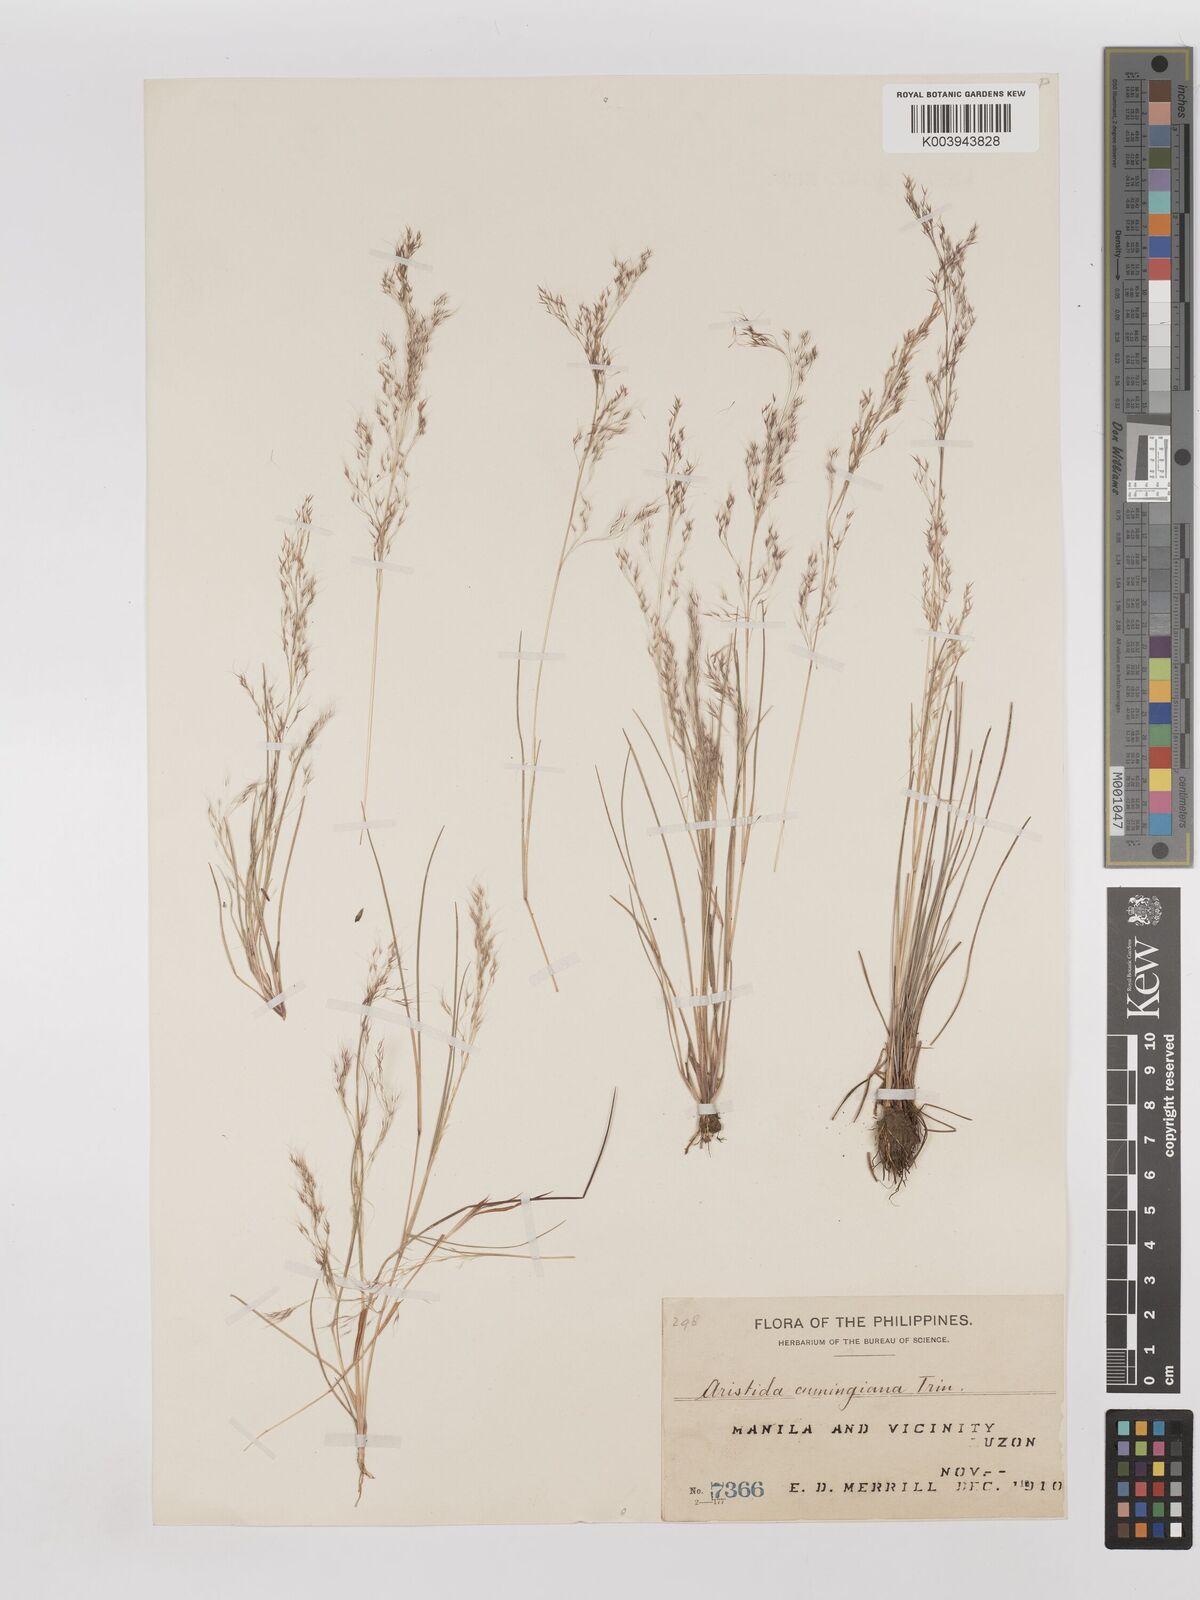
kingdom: Plantae
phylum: Tracheophyta
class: Liliopsida
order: Poales
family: Poaceae
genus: Aristida
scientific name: Aristida cumingiana
